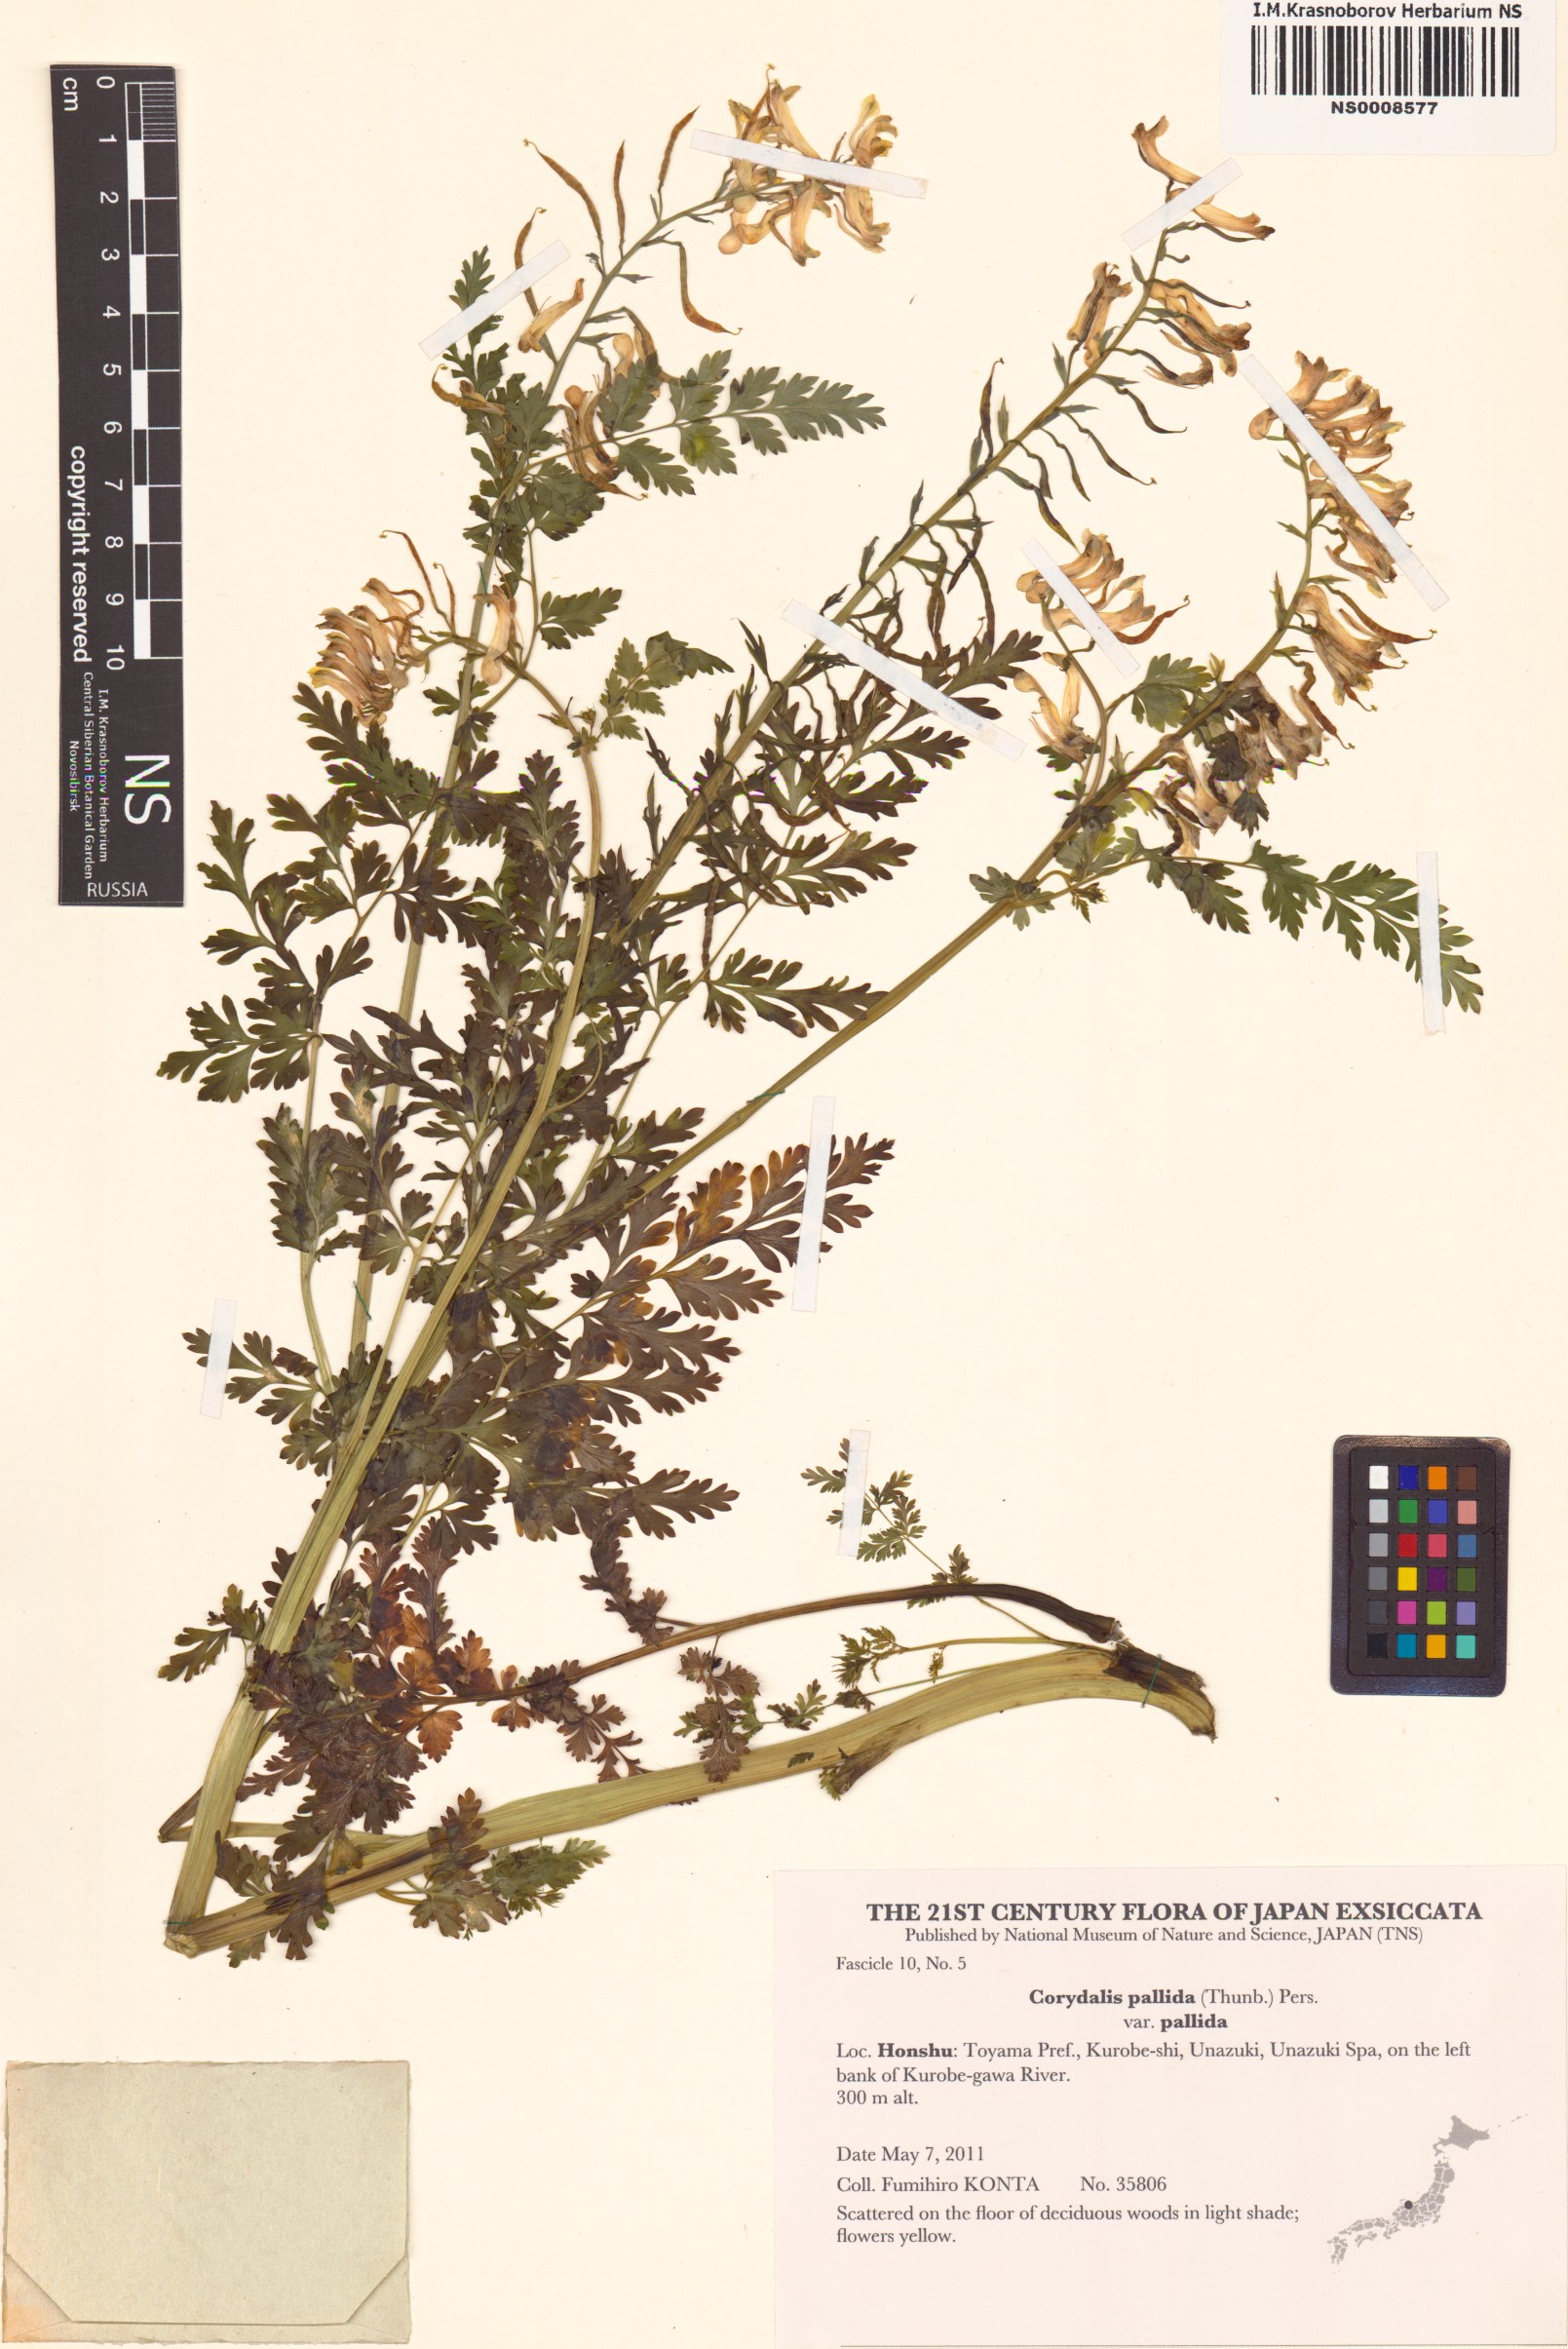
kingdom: Plantae
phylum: Tracheophyta
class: Magnoliopsida
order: Ranunculales
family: Papaveraceae
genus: Corydalis
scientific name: Corydalis pallida
